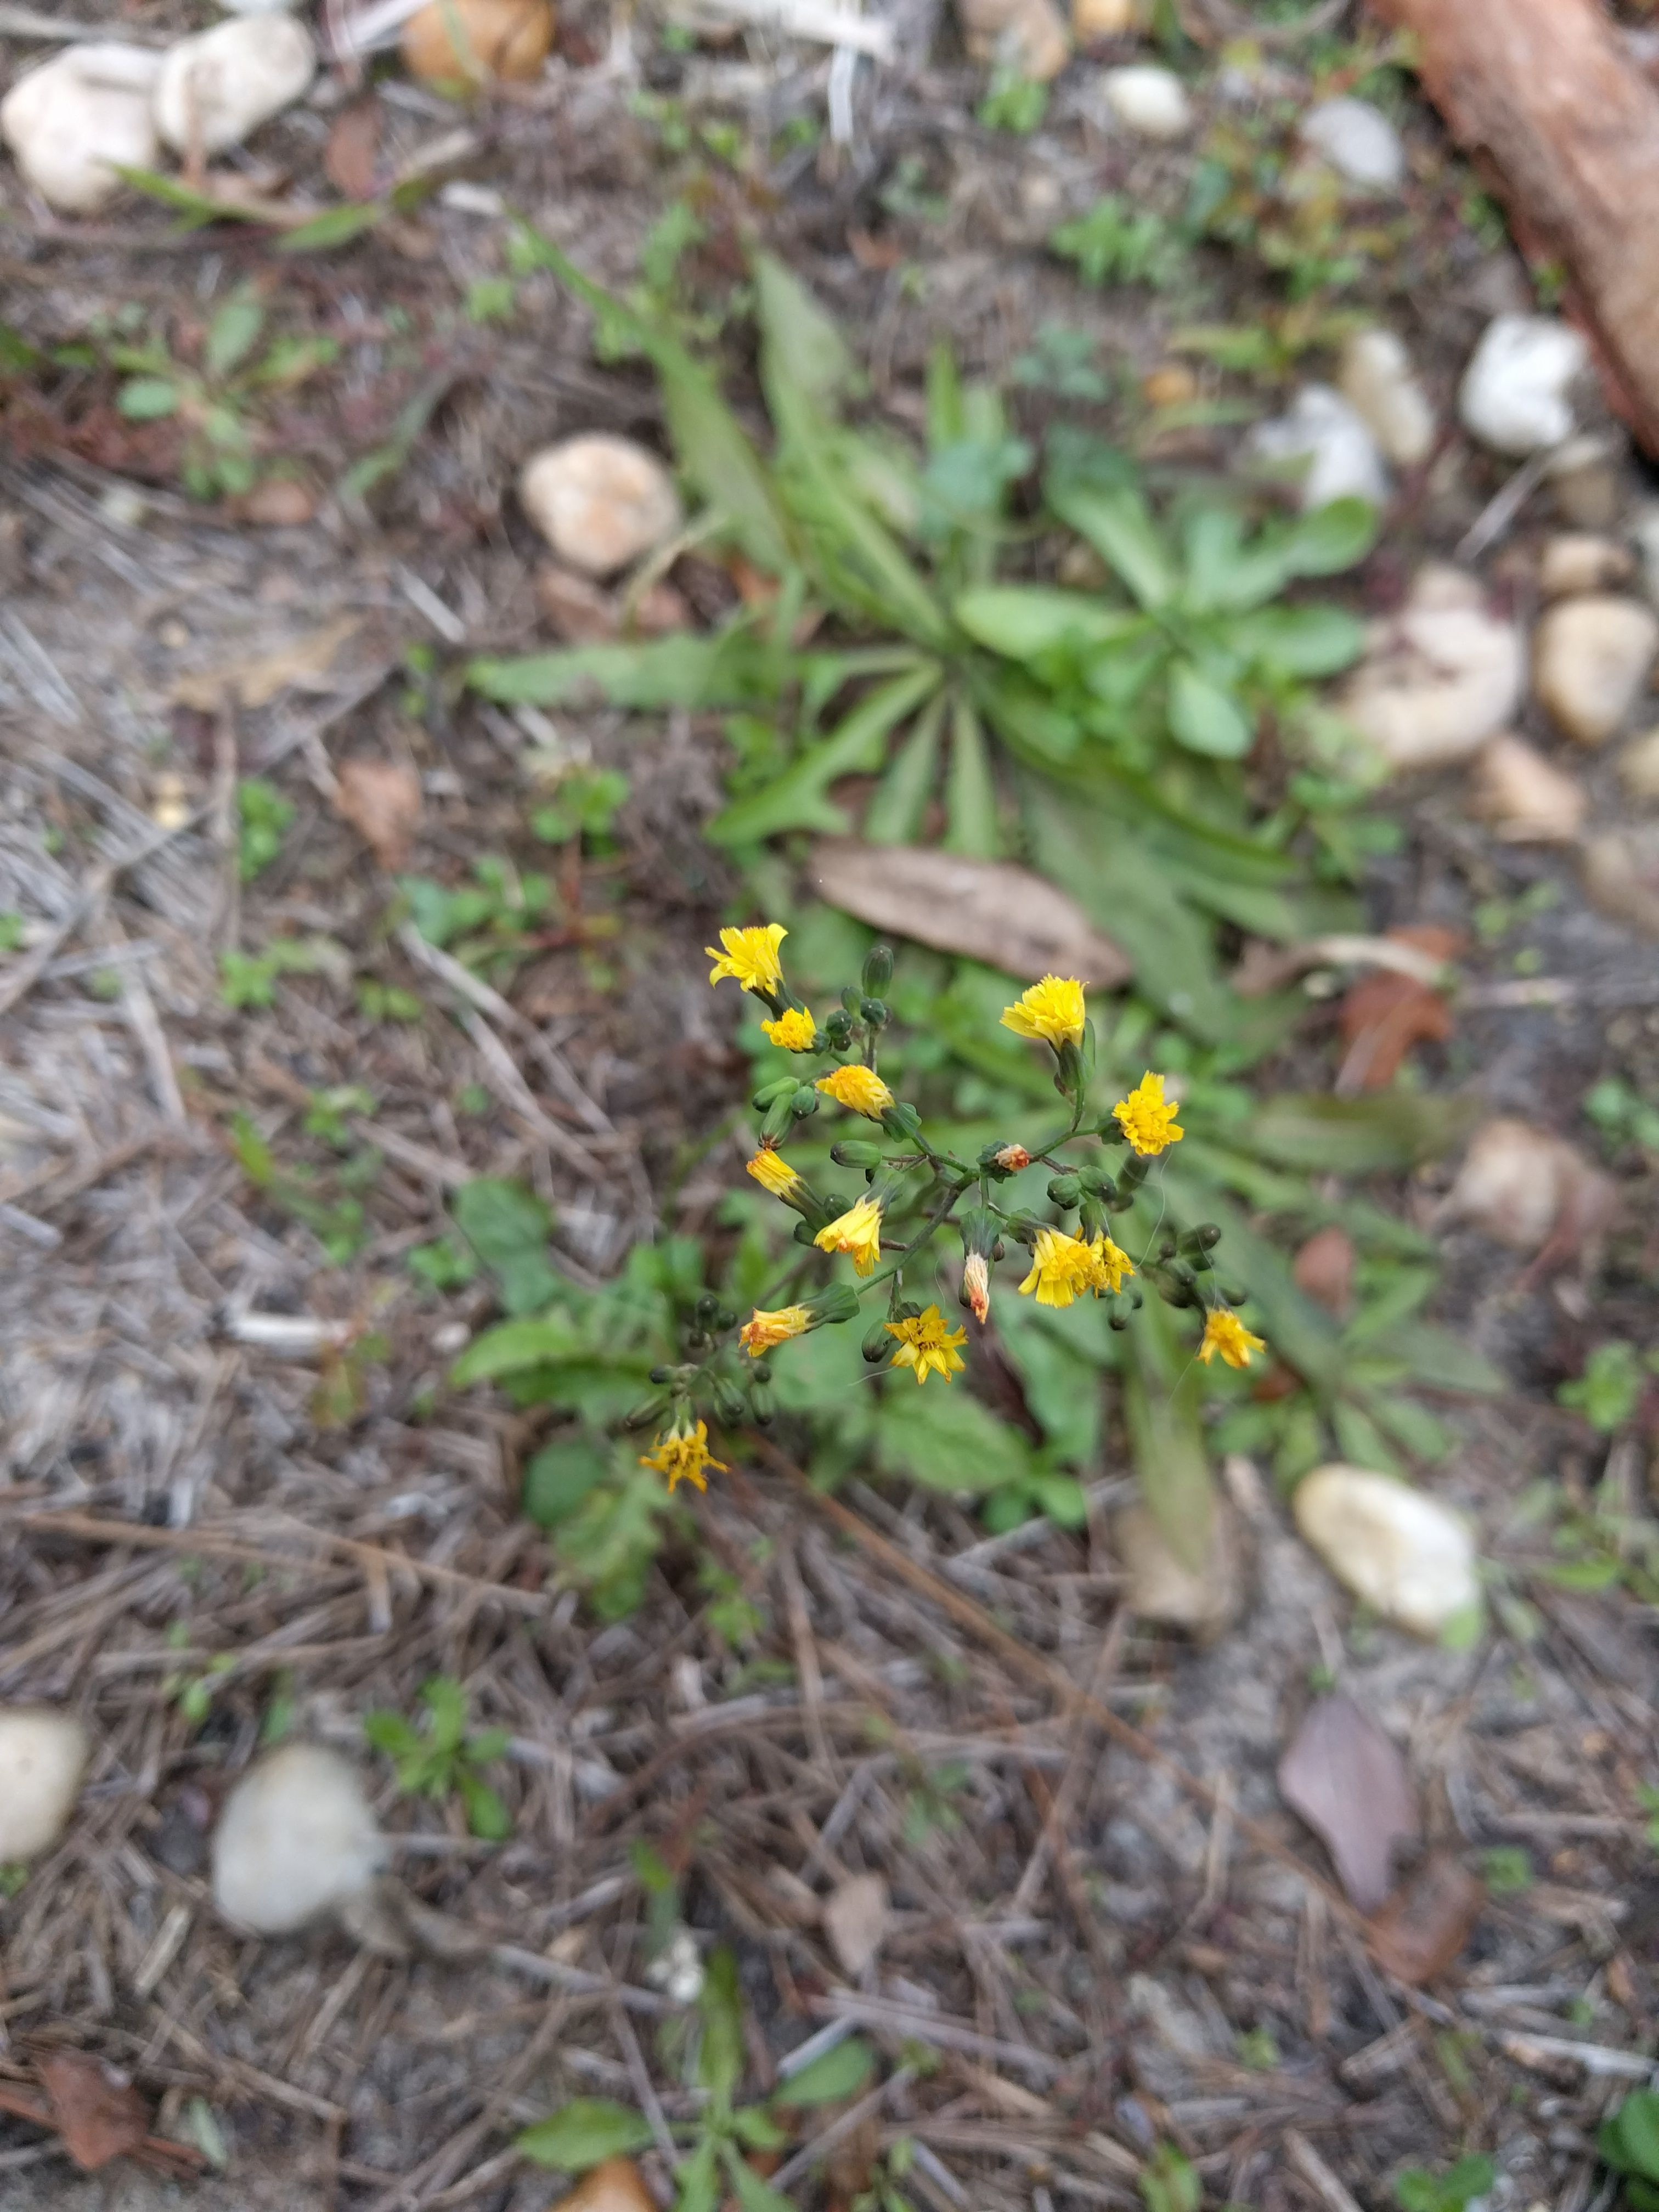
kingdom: Plantae
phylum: Tracheophyta
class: Magnoliopsida
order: Asterales
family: Asteraceae
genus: Youngia
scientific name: Youngia japonica
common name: Oriental false hawksbeard
